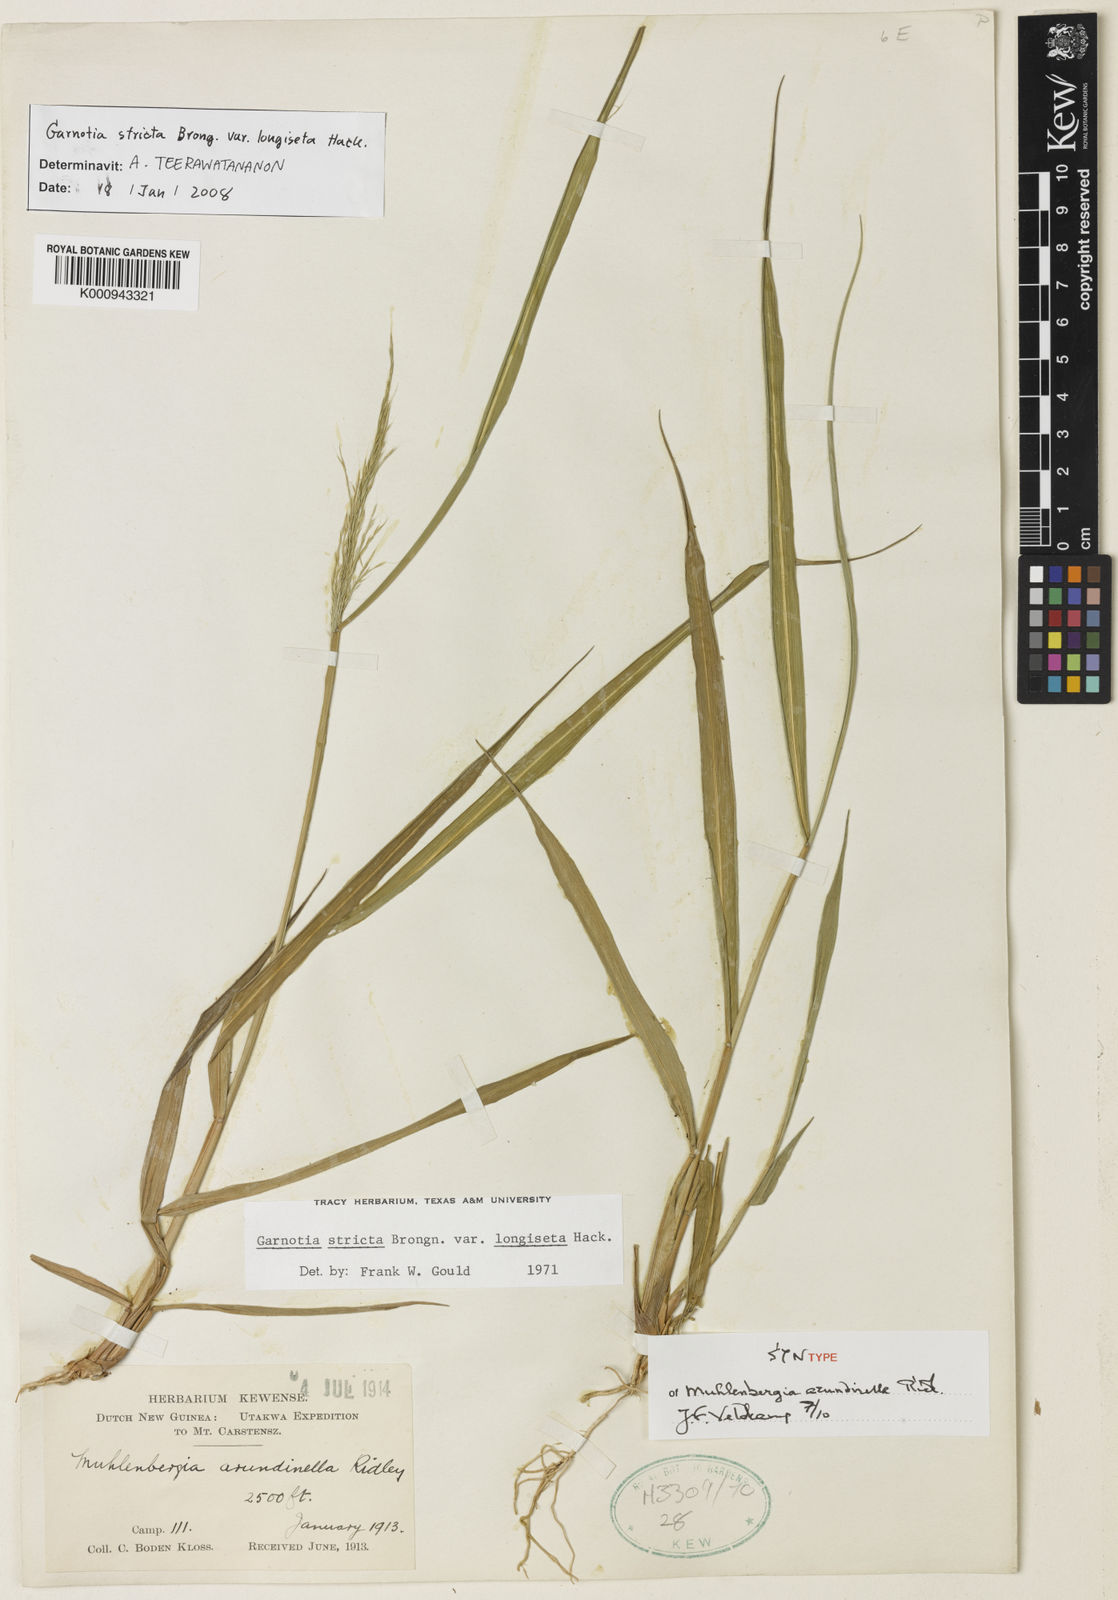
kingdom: Plantae
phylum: Tracheophyta
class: Liliopsida
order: Poales
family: Poaceae
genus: Garnotia
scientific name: Garnotia stricta
